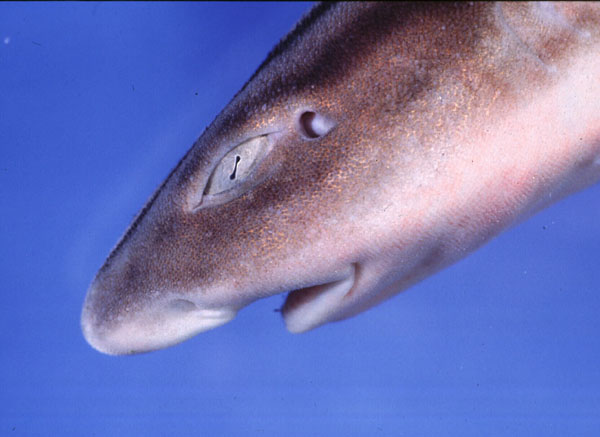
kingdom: Animalia
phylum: Chordata
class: Elasmobranchii
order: Carcharhiniformes
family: Scyliorhinidae
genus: Poroderma
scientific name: Poroderma africanum
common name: Pyjama shark
